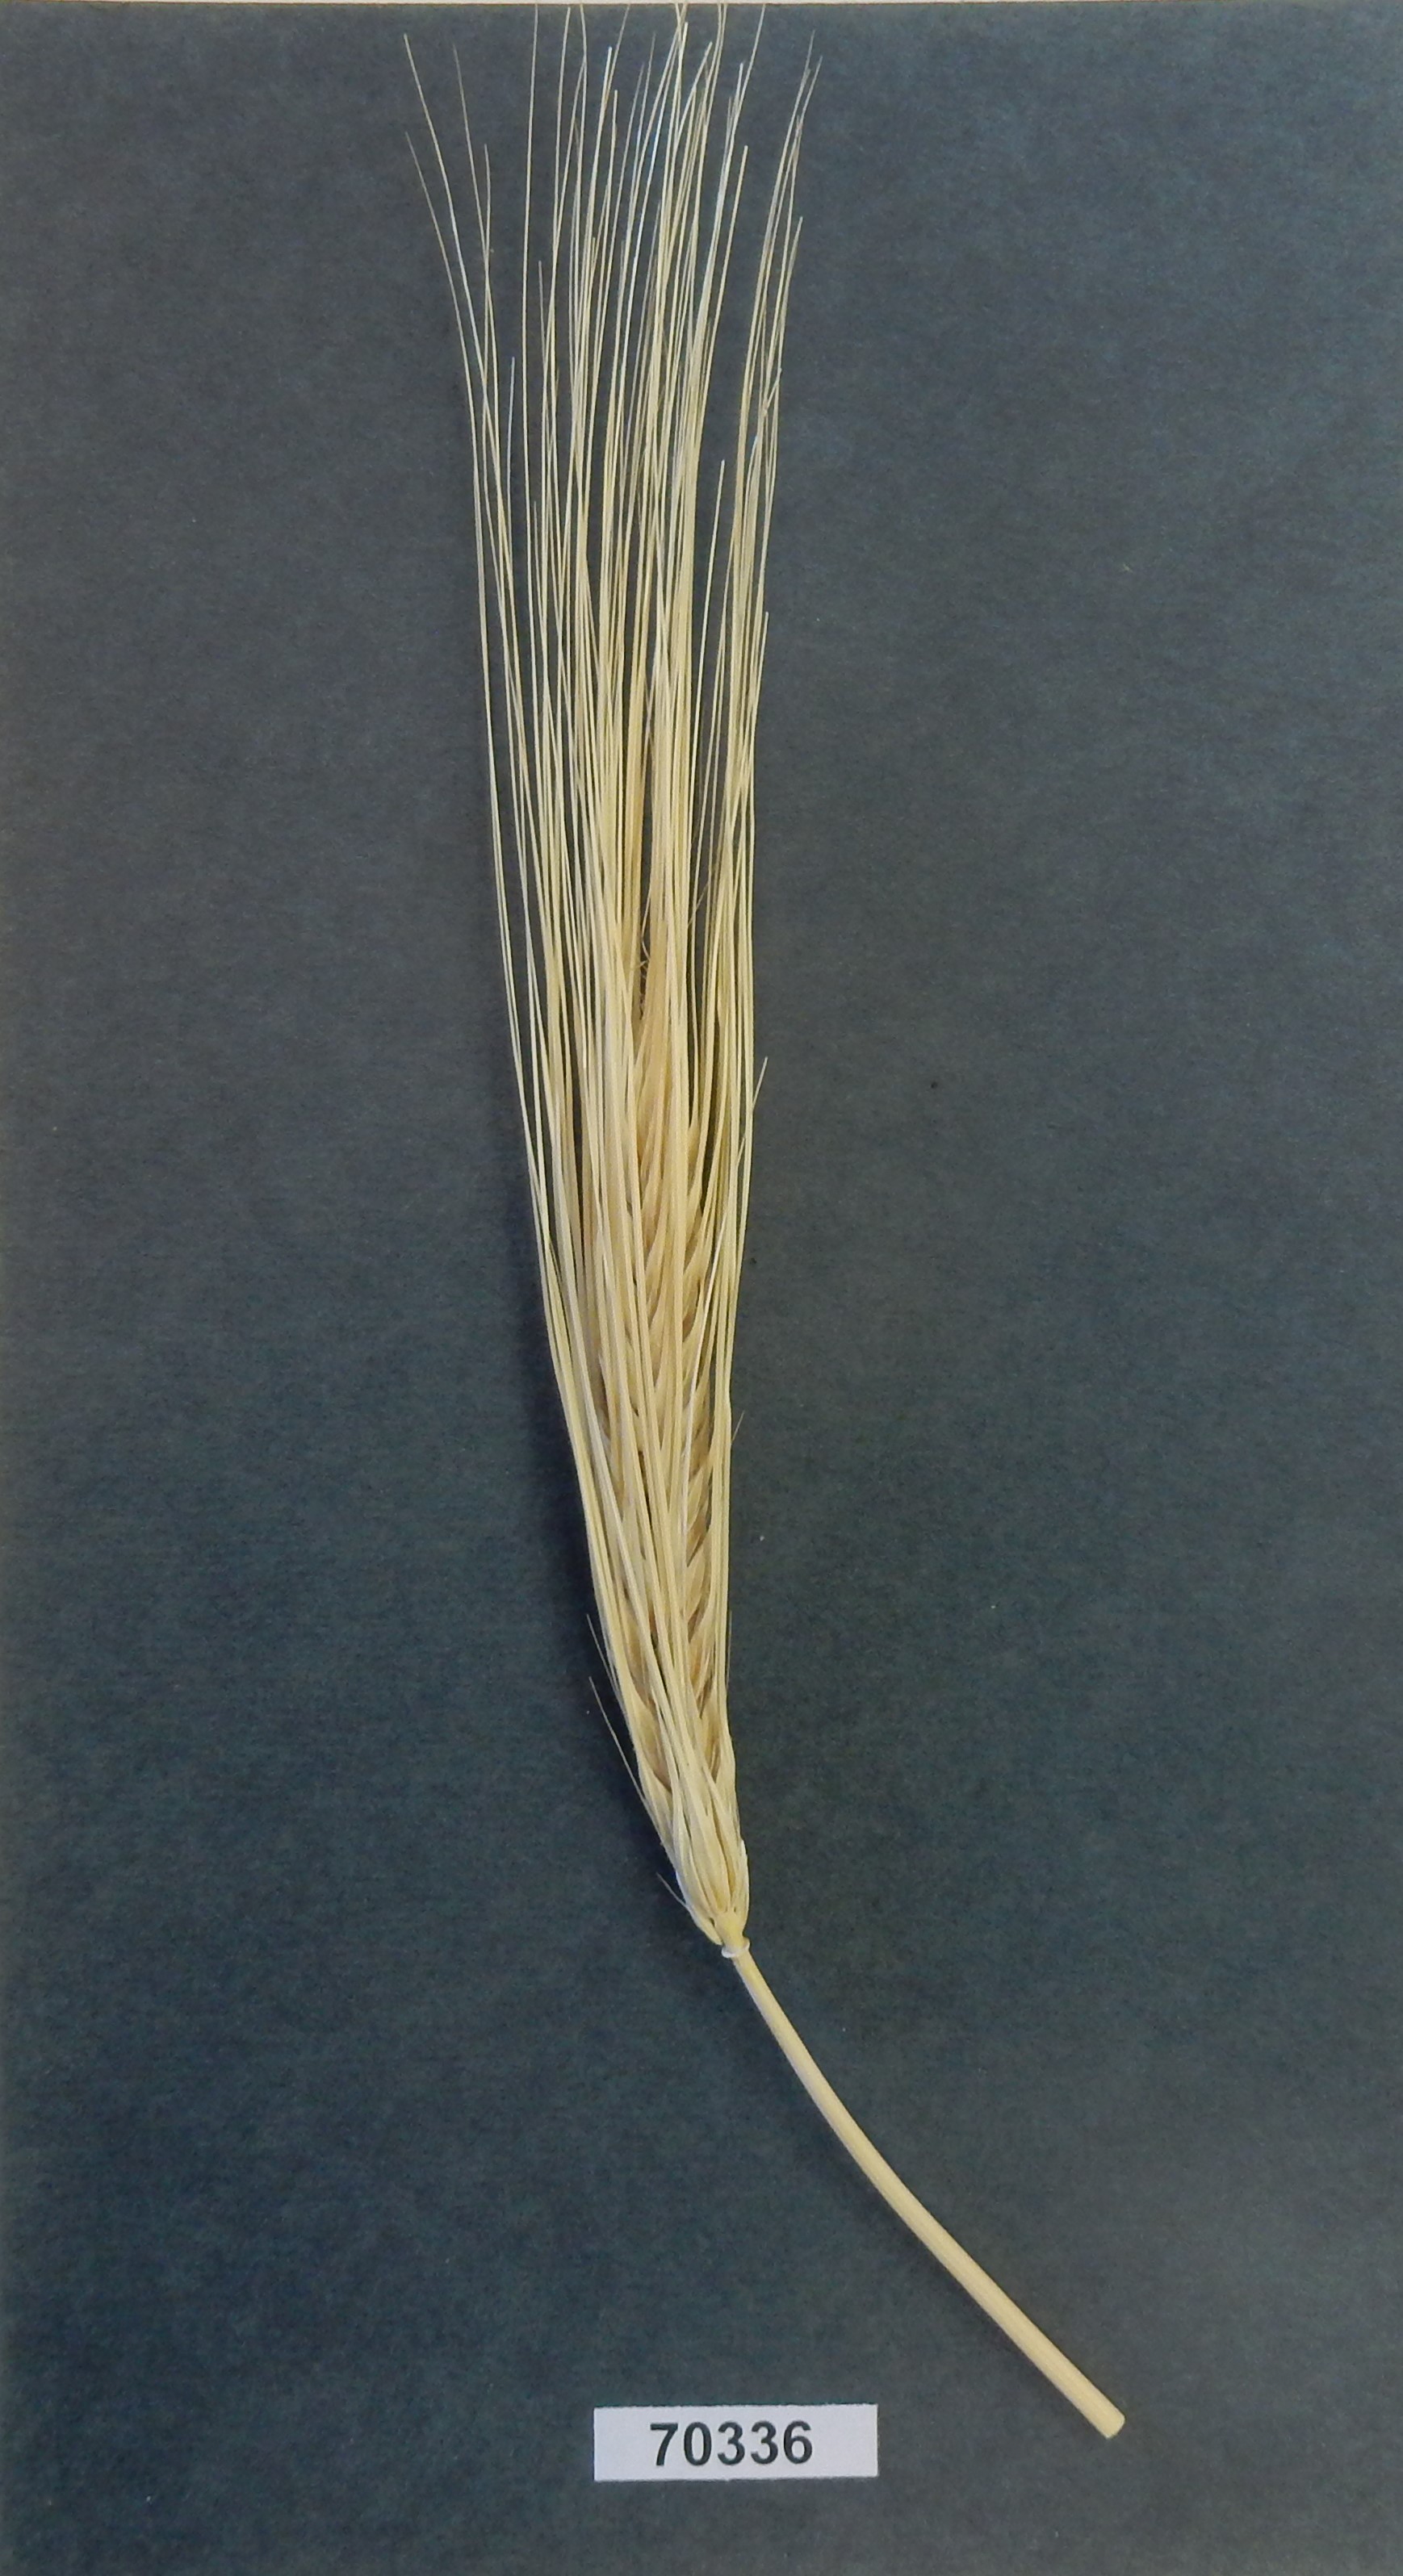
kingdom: Plantae
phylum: Tracheophyta
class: Liliopsida
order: Poales
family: Poaceae
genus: Hordeum
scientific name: Hordeum
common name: Barley
